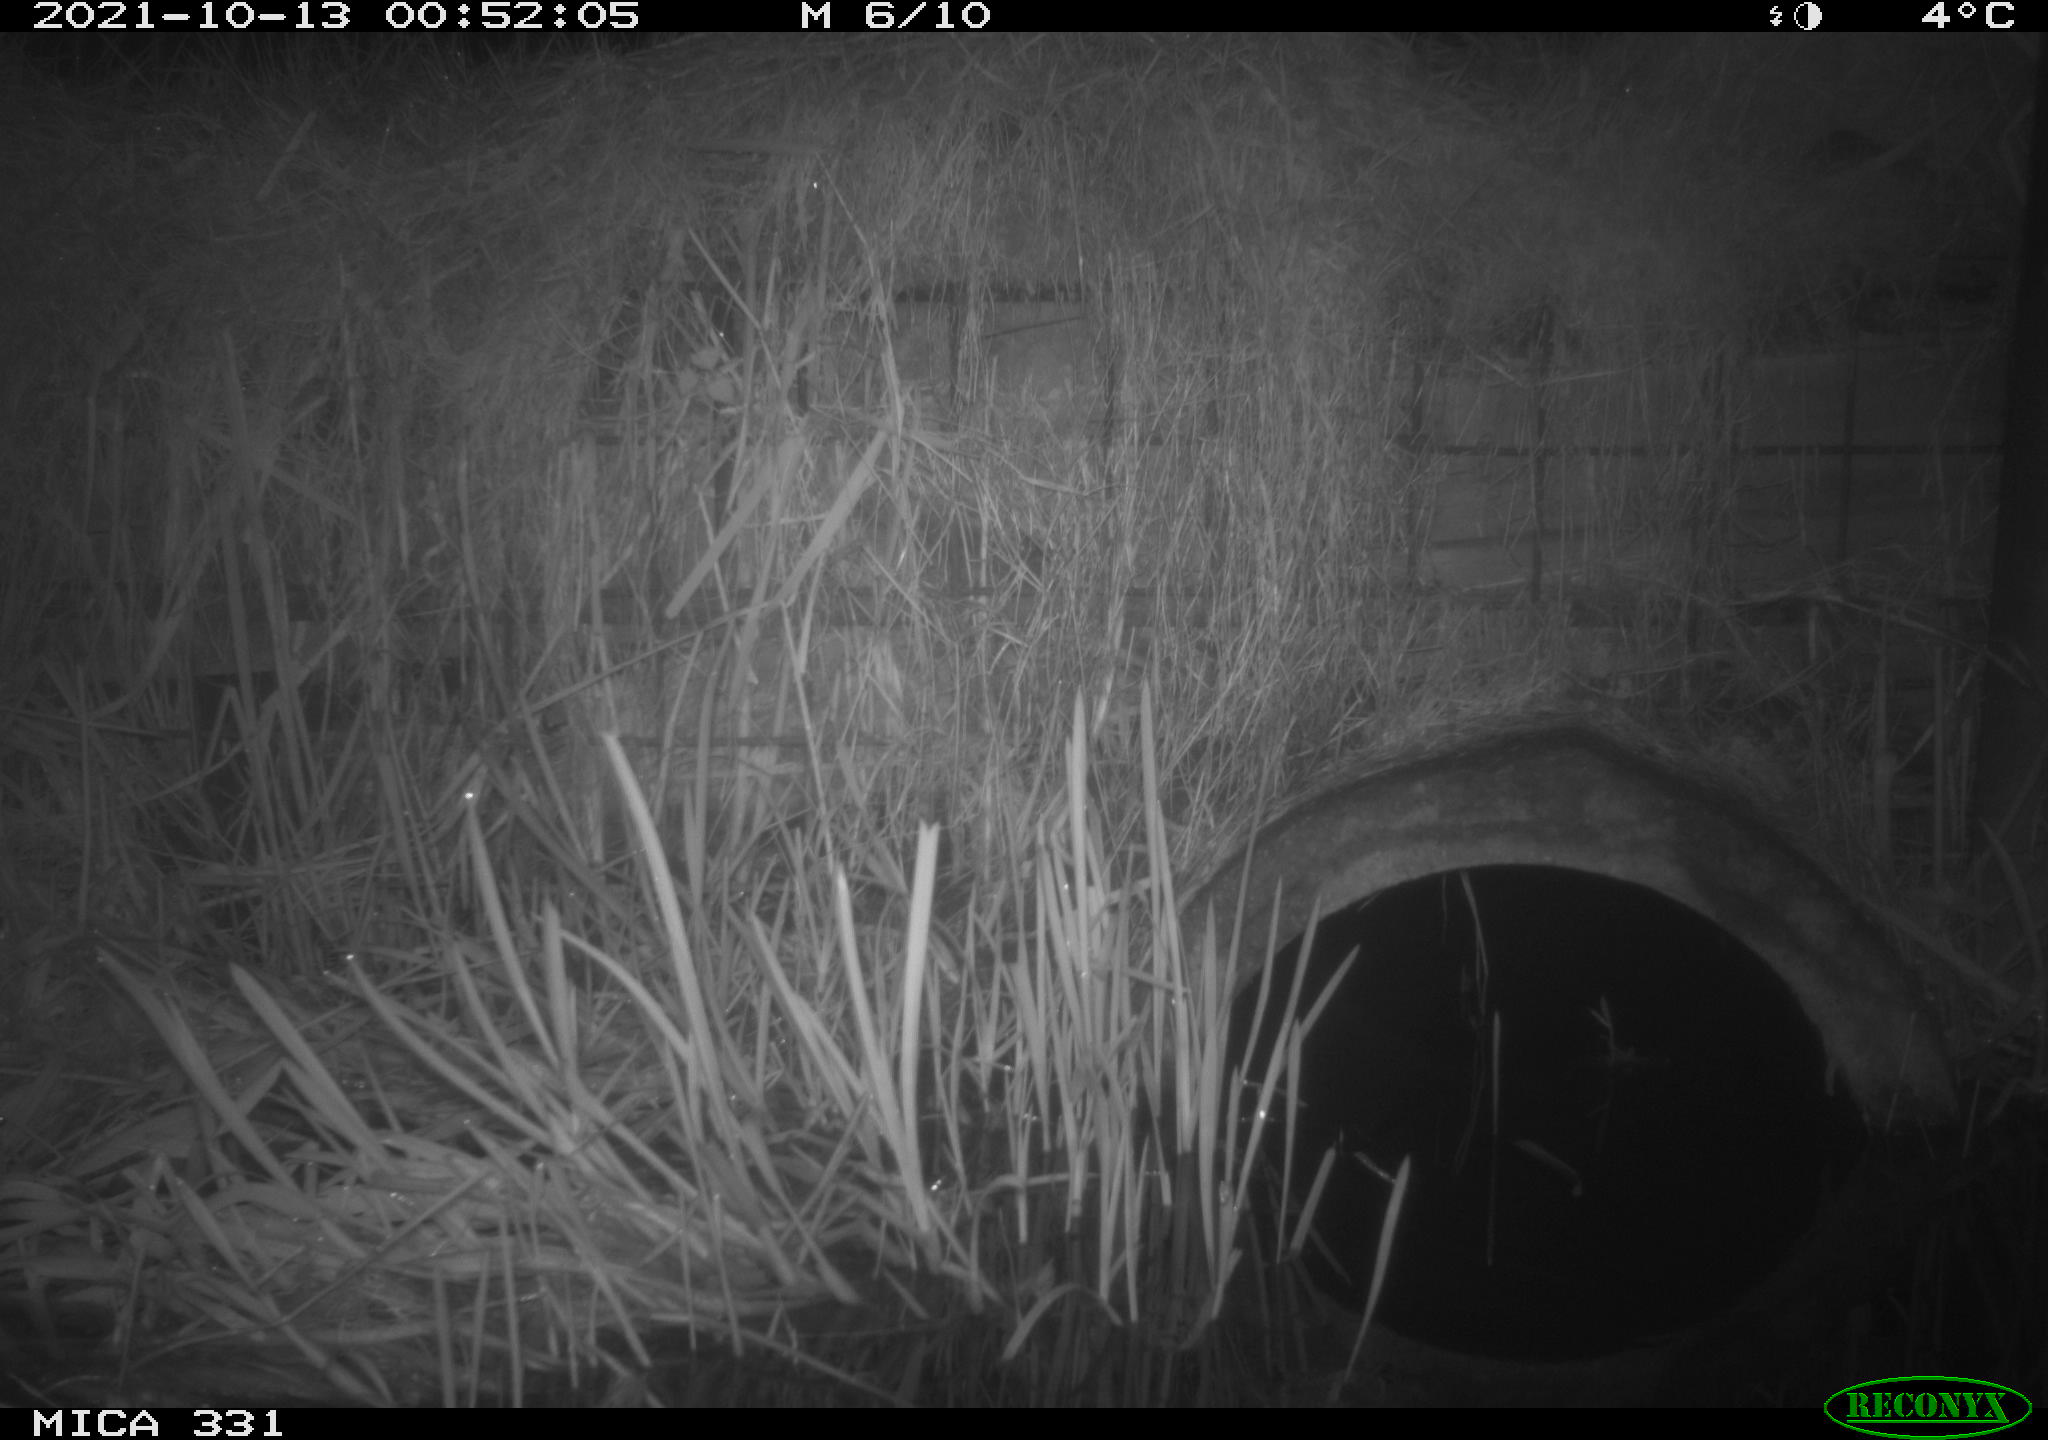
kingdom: Animalia
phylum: Chordata
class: Mammalia
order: Rodentia
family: Muridae
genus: Rattus
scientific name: Rattus norvegicus
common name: Brown rat
